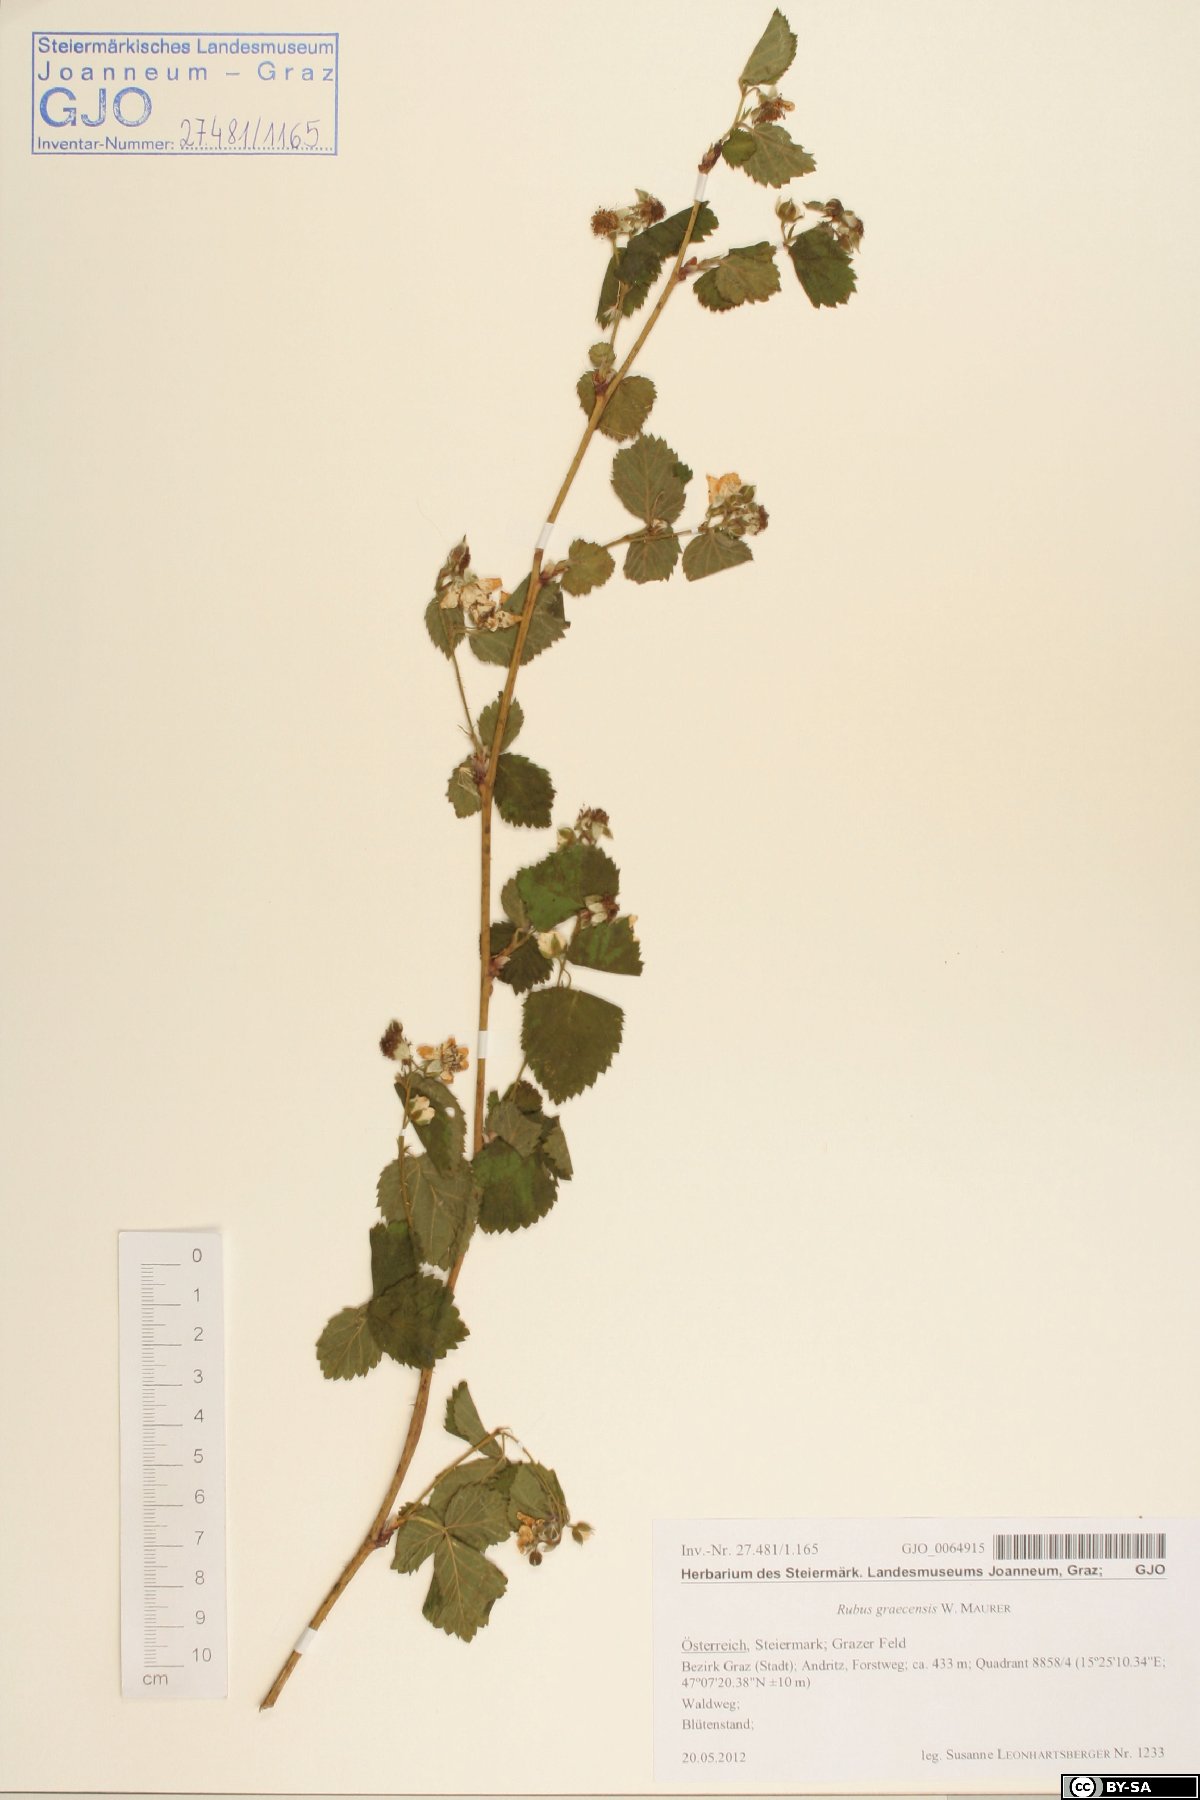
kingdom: Plantae
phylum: Tracheophyta
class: Magnoliopsida
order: Rosales
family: Rosaceae
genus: Rubus
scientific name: Rubus graecensis
